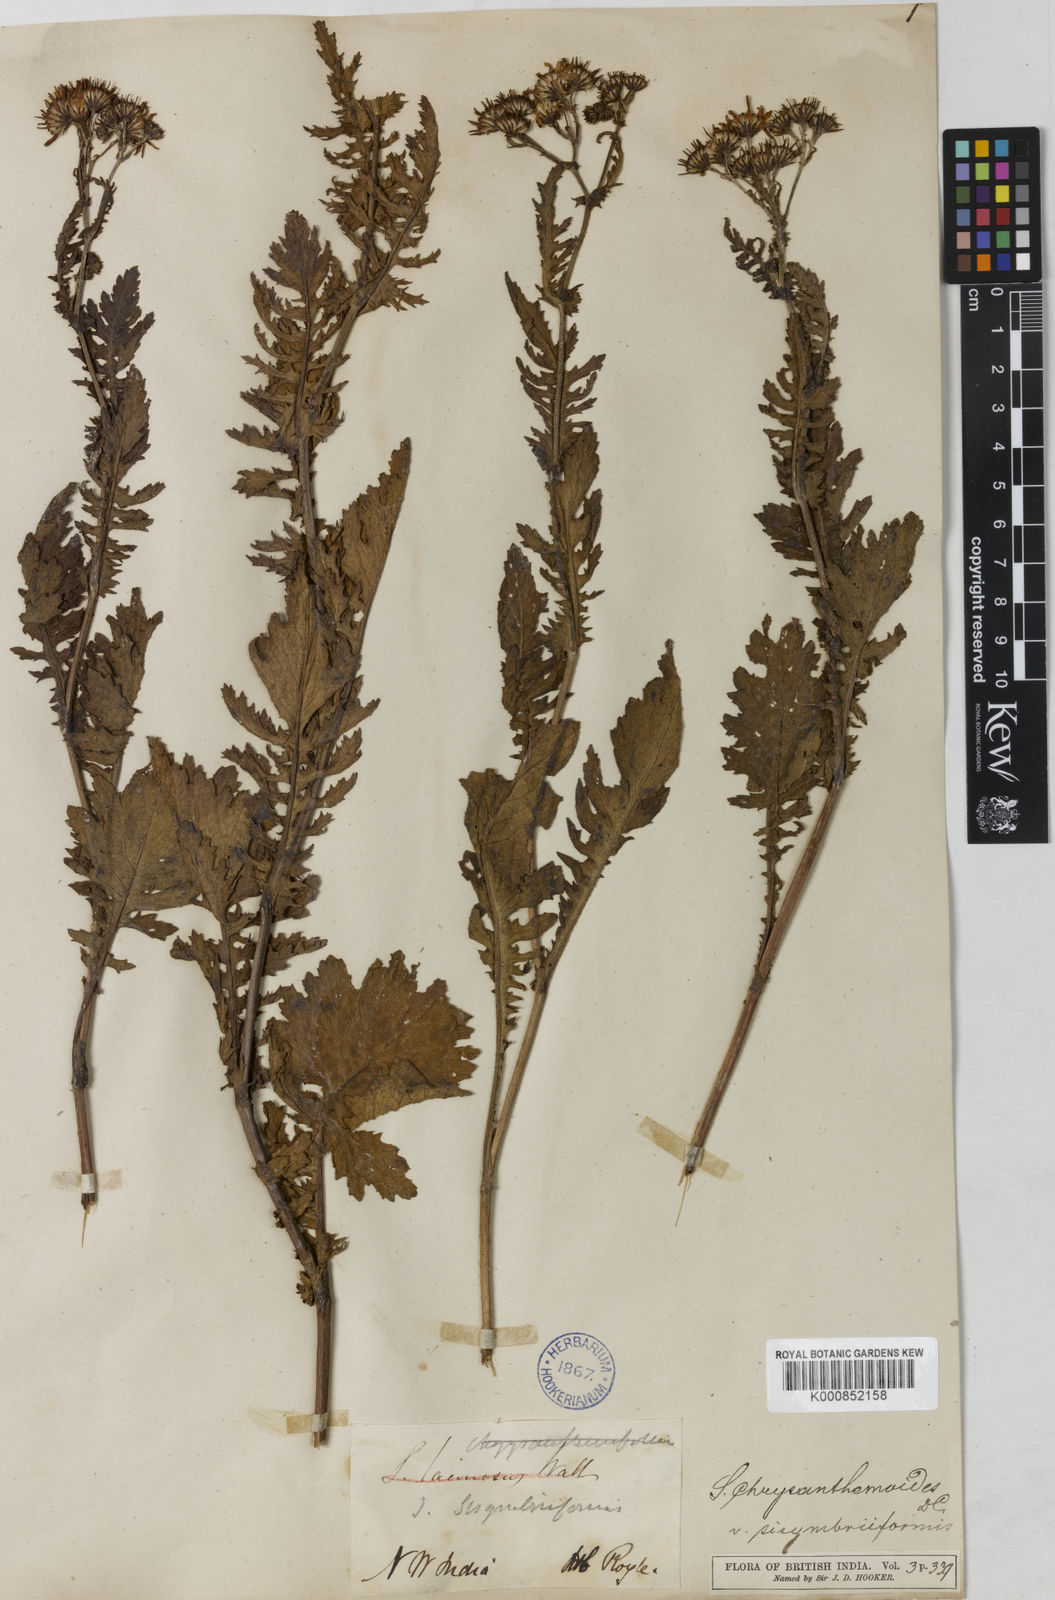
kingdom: Plantae
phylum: Tracheophyta
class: Magnoliopsida
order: Asterales
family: Asteraceae
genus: Jacobaea
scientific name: Jacobaea analoga
